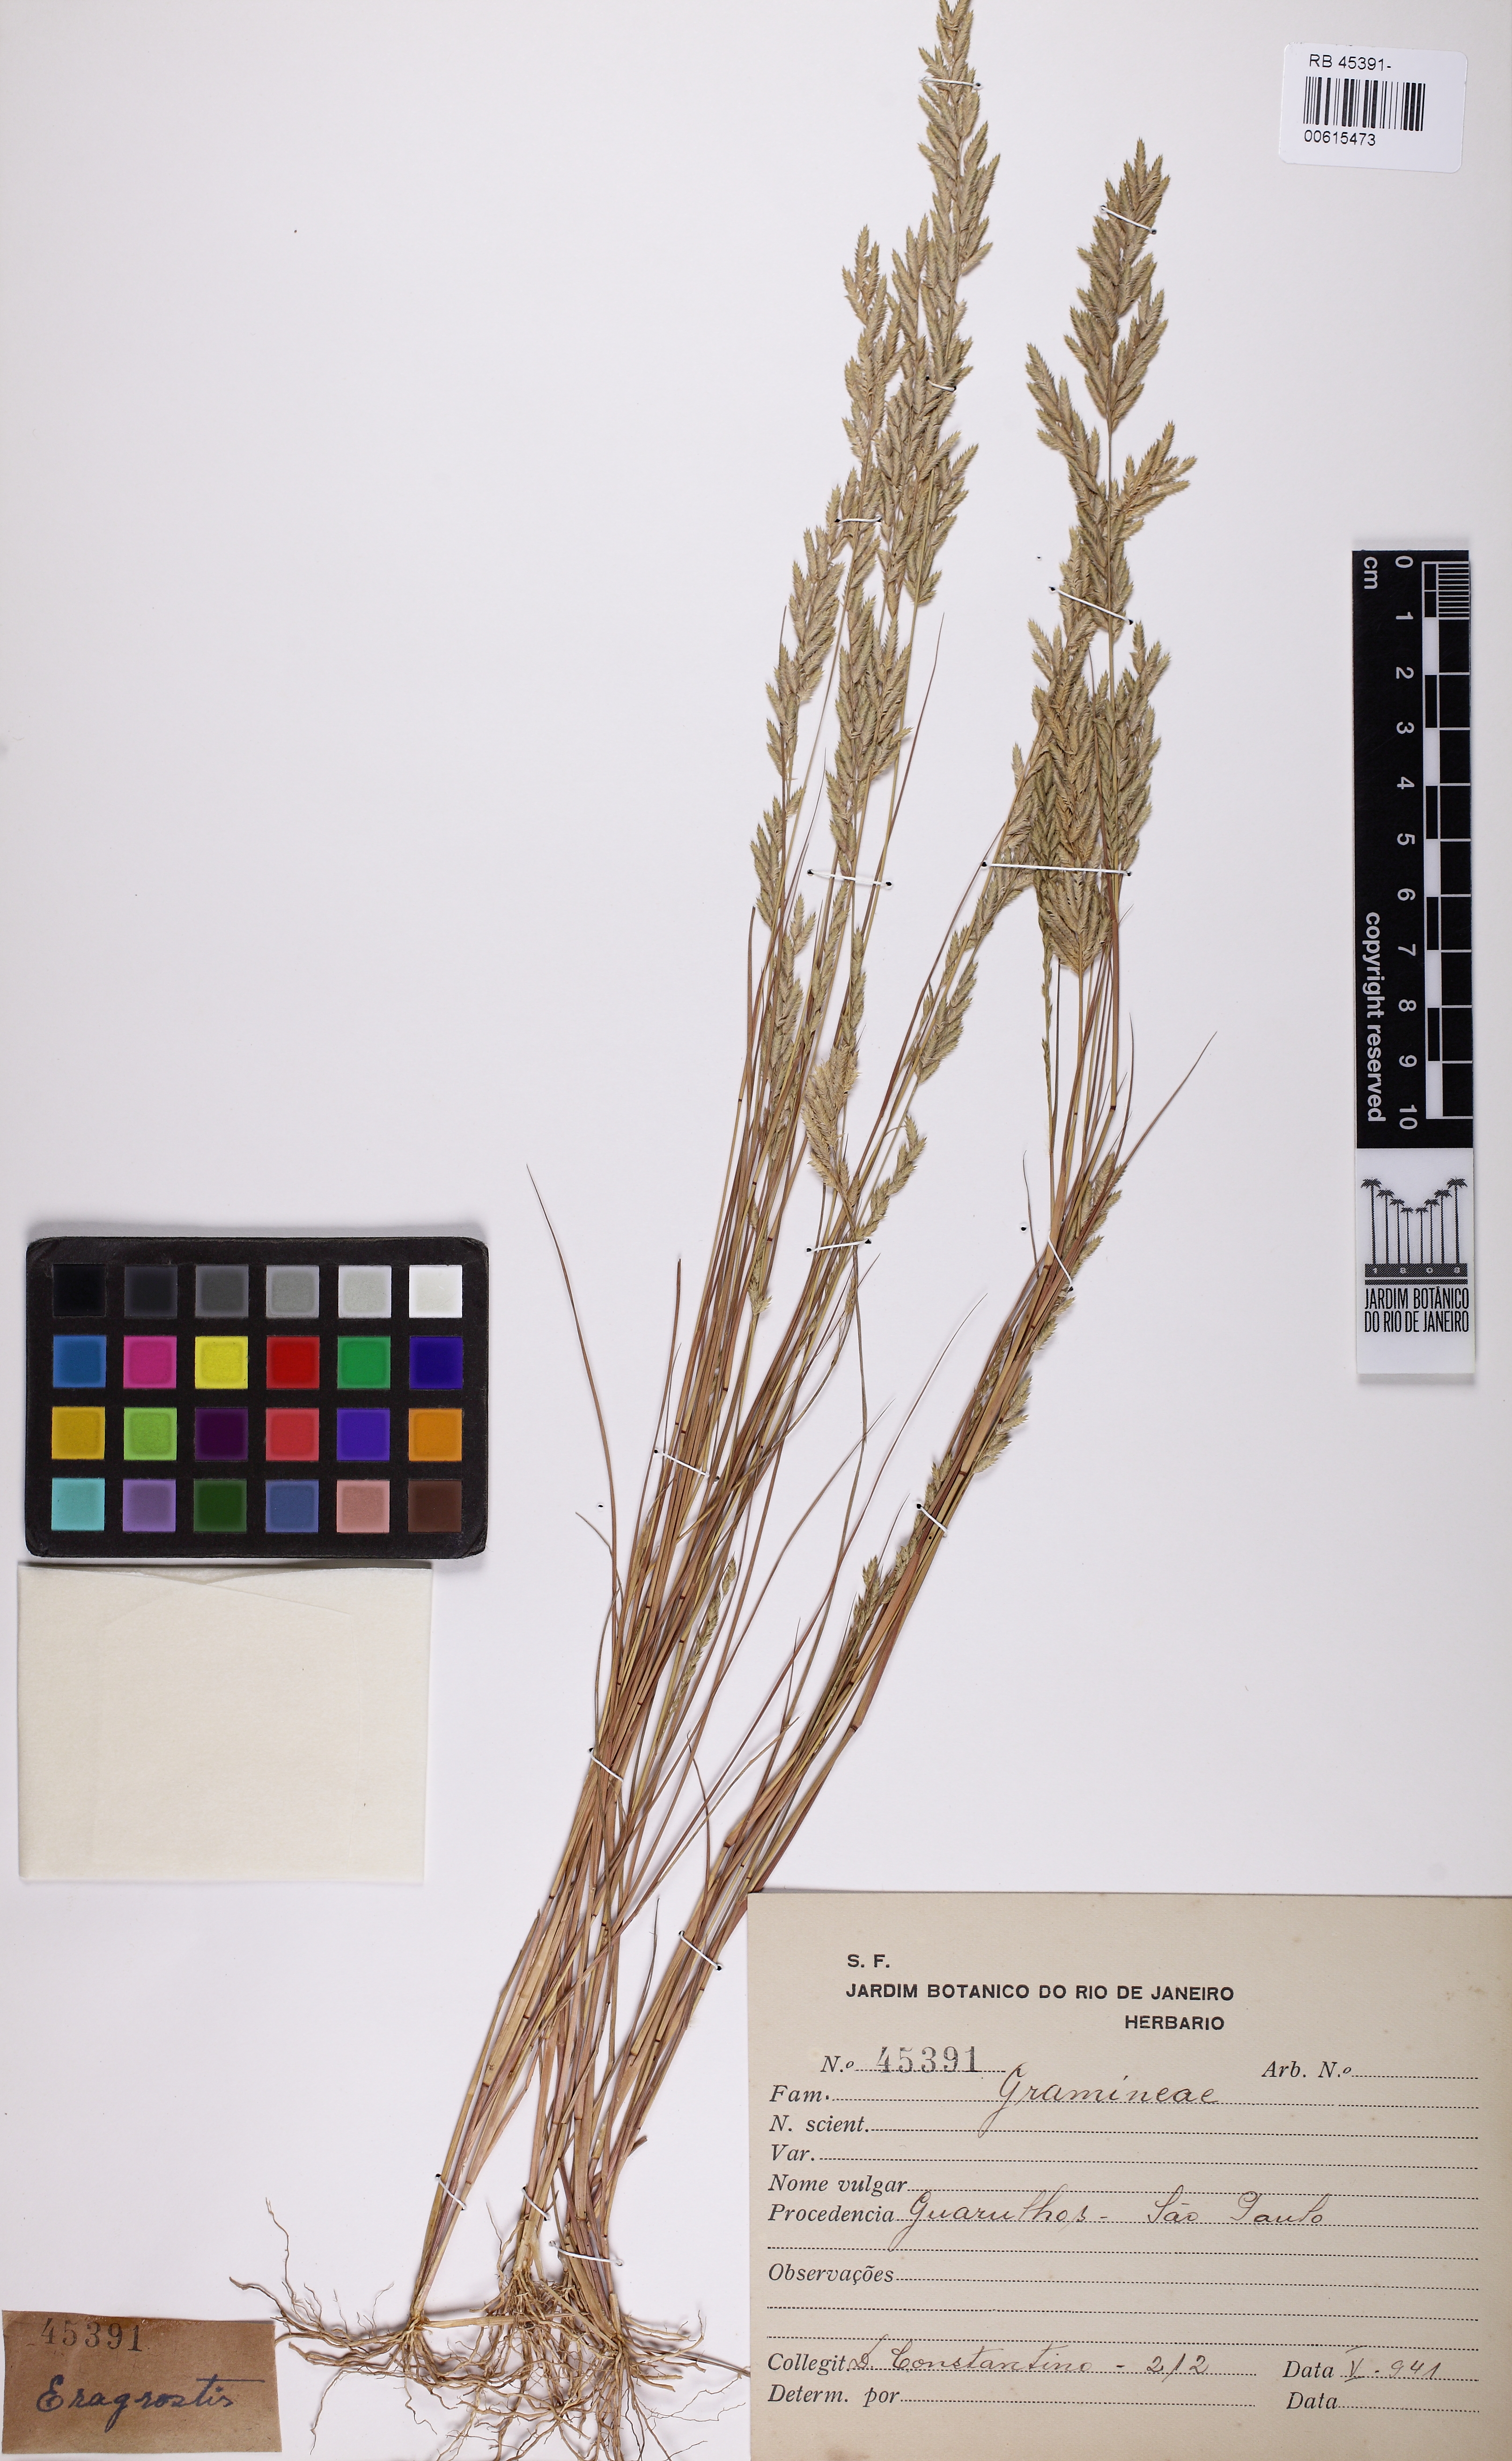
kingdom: Plantae
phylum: Tracheophyta
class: Liliopsida
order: Poales
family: Poaceae
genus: Eragrostis
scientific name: Eragrostis
